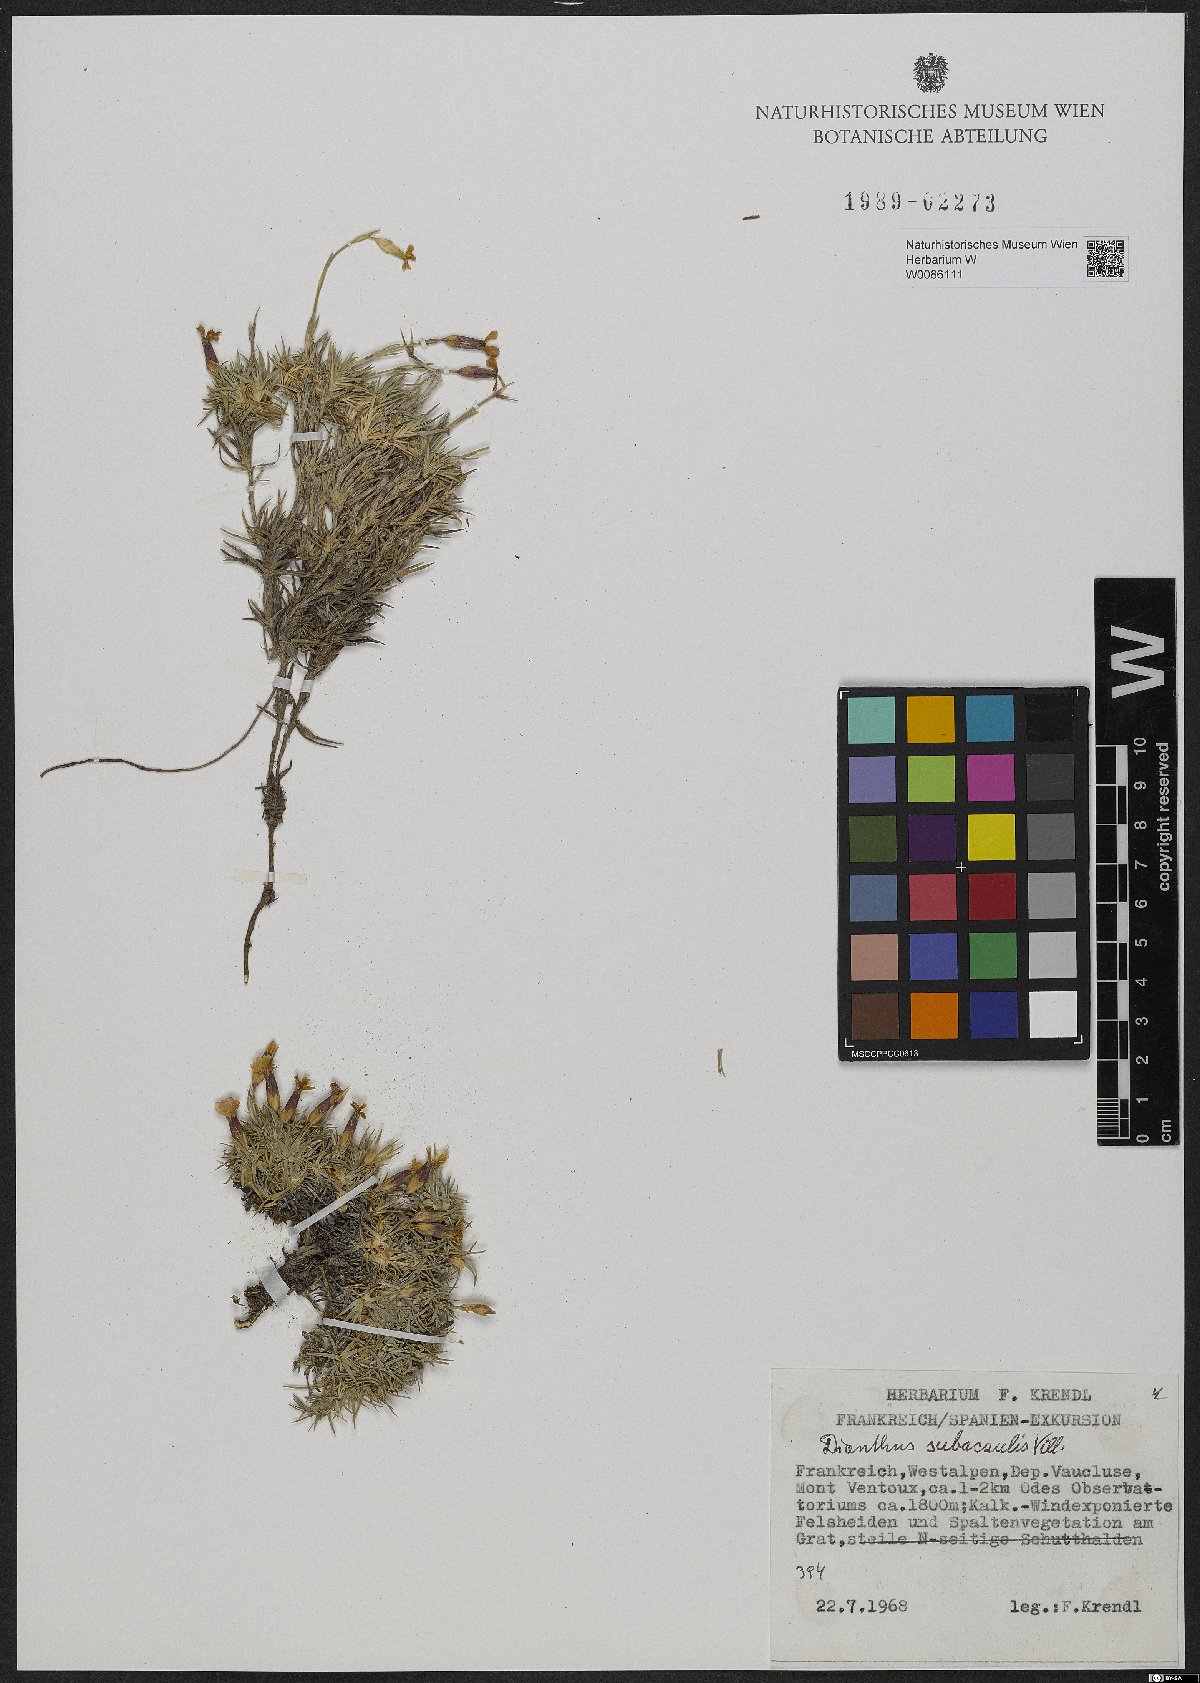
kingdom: Plantae
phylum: Tracheophyta
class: Magnoliopsida
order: Caryophyllales
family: Caryophyllaceae
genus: Dianthus
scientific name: Dianthus subacaulis
